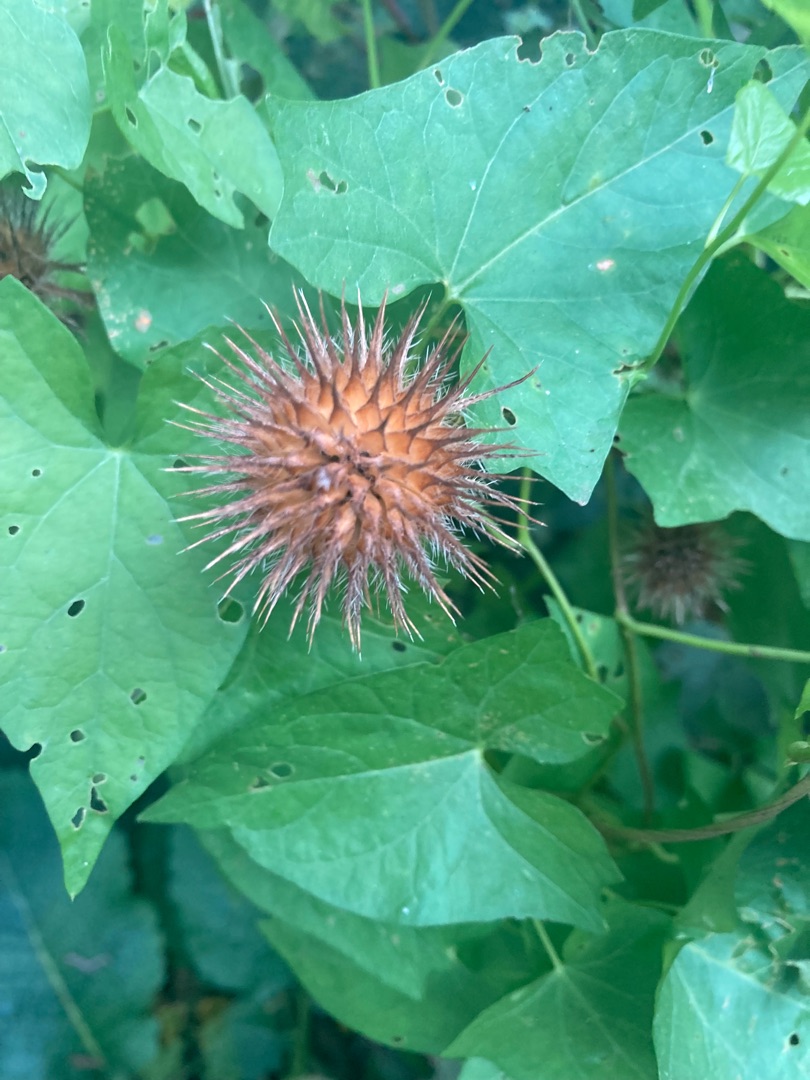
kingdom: Plantae
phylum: Tracheophyta
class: Magnoliopsida
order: Dipsacales
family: Caprifoliaceae
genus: Dipsacus
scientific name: Dipsacus strigosus
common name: Pindsvin-kartebolle
